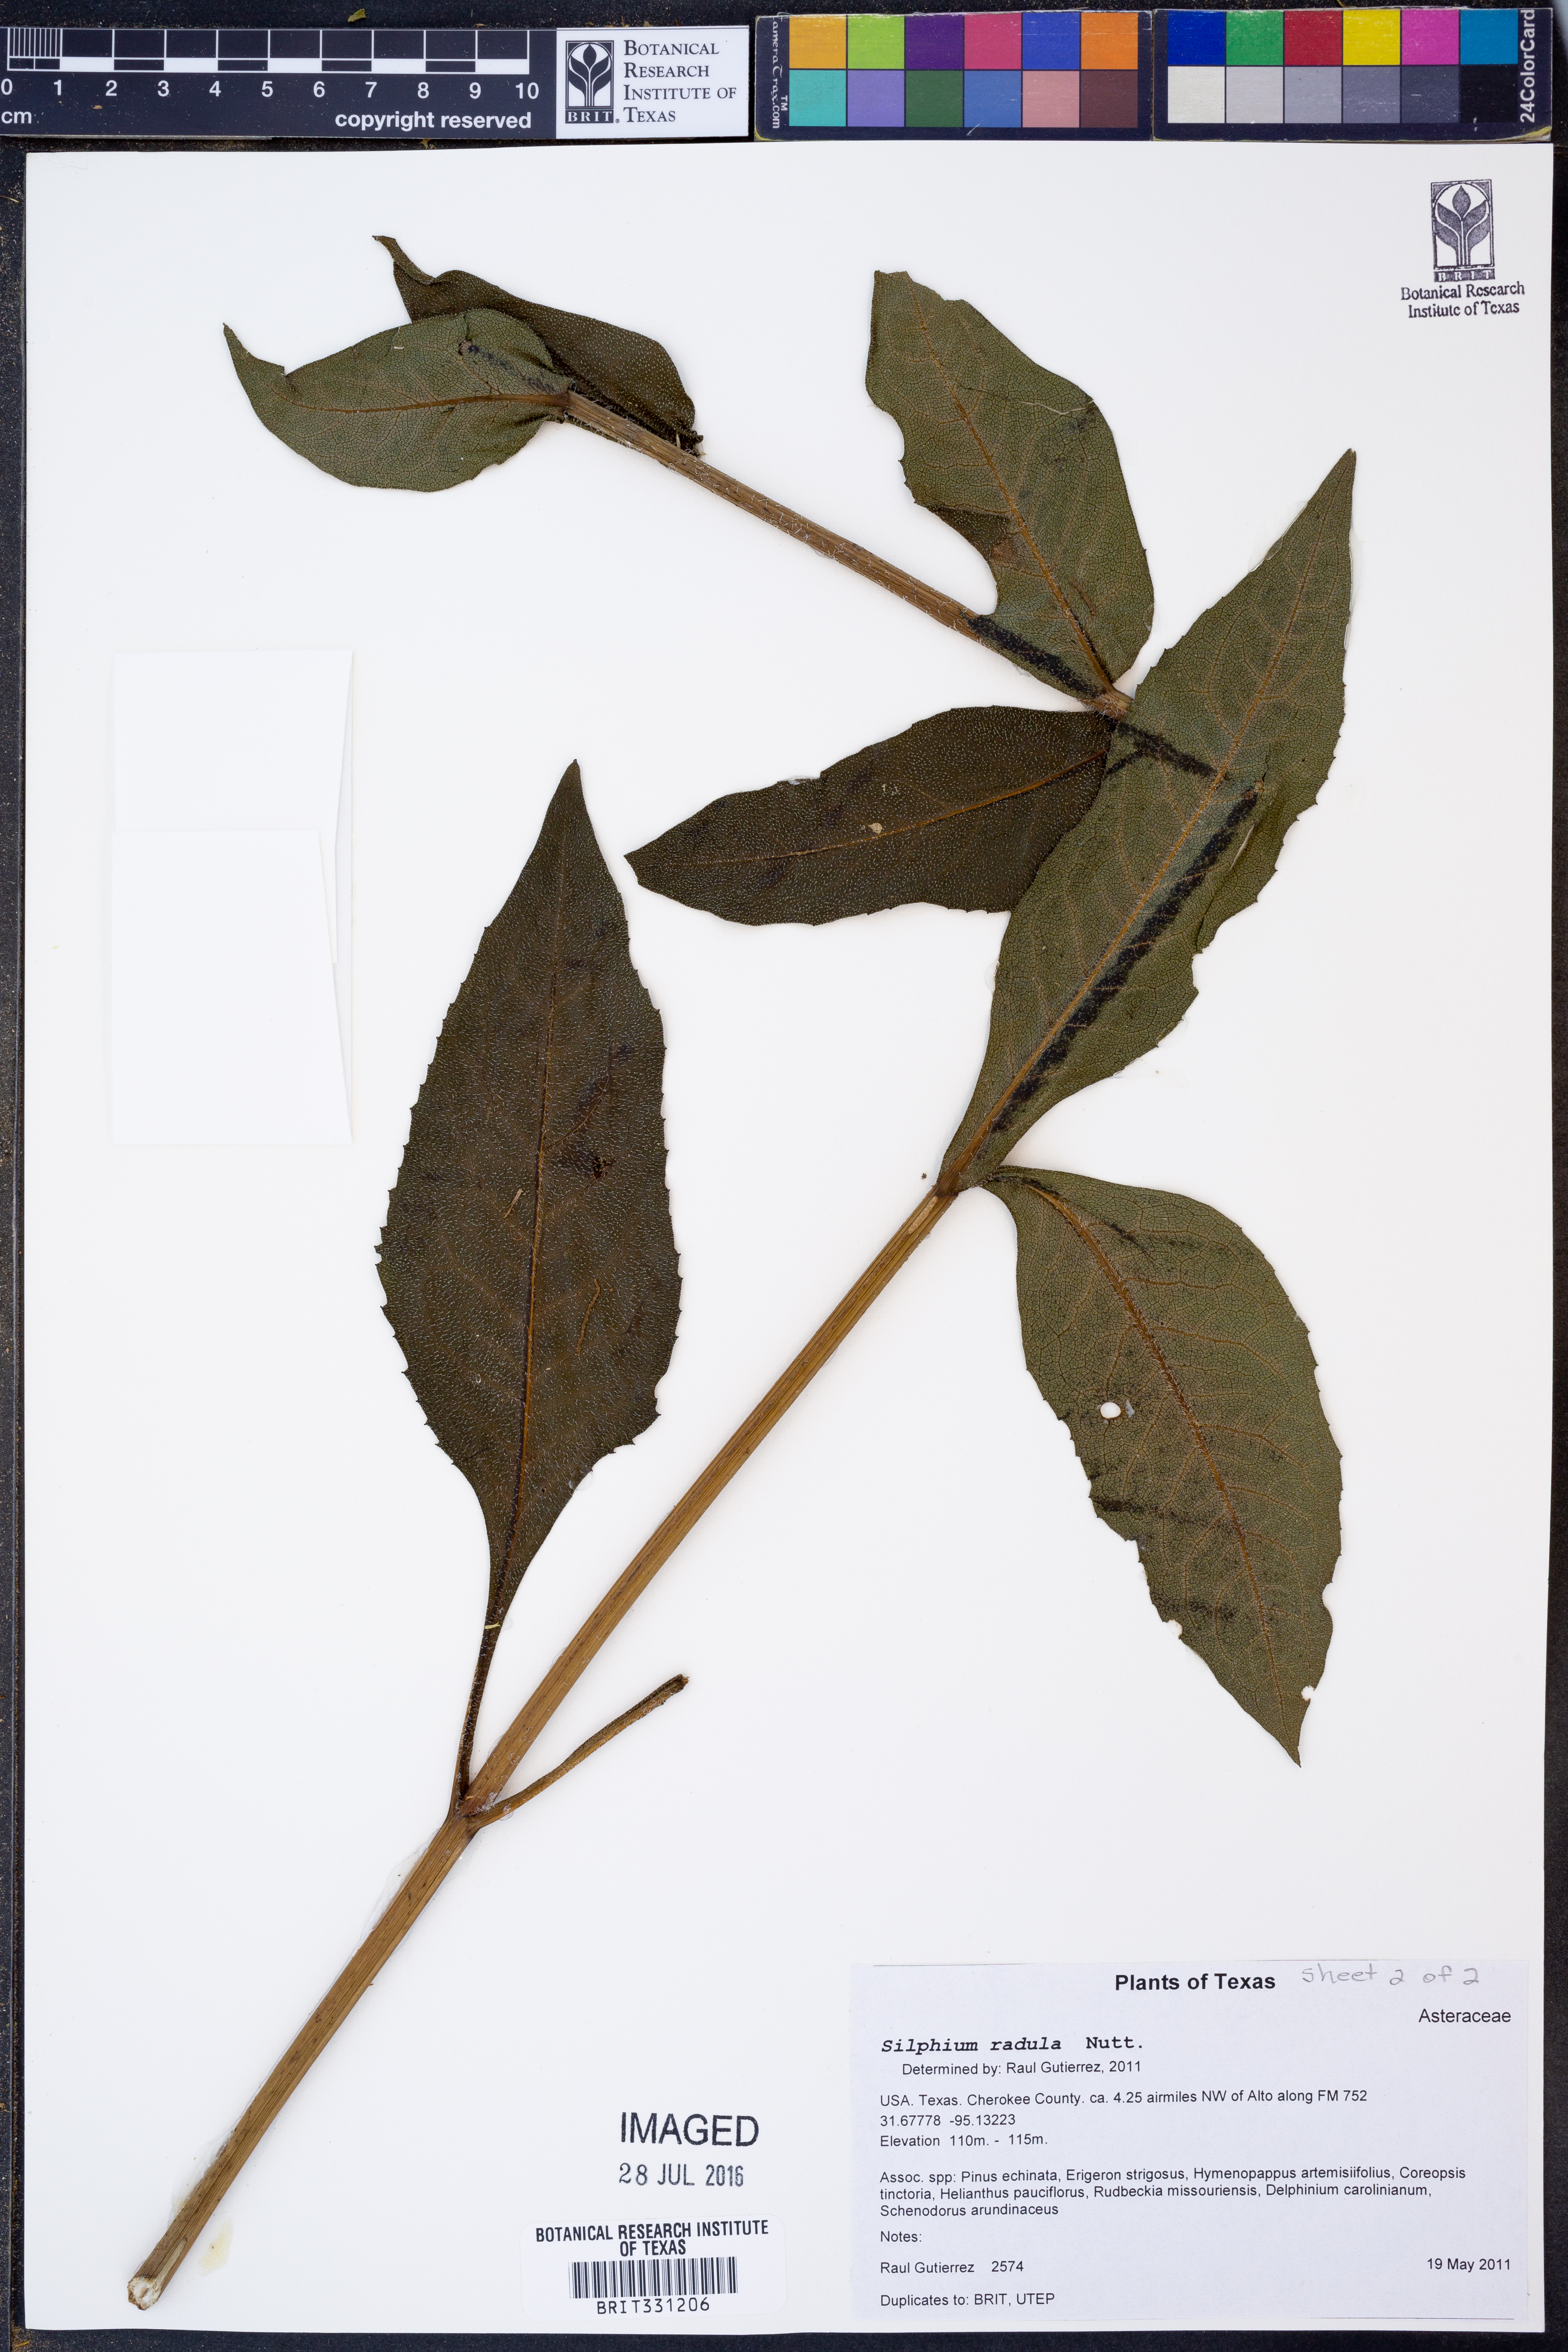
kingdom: Plantae
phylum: Tracheophyta
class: Magnoliopsida
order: Asterales
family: Asteraceae
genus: Silphium
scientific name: Silphium radula
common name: Roughleaf rosinweed
